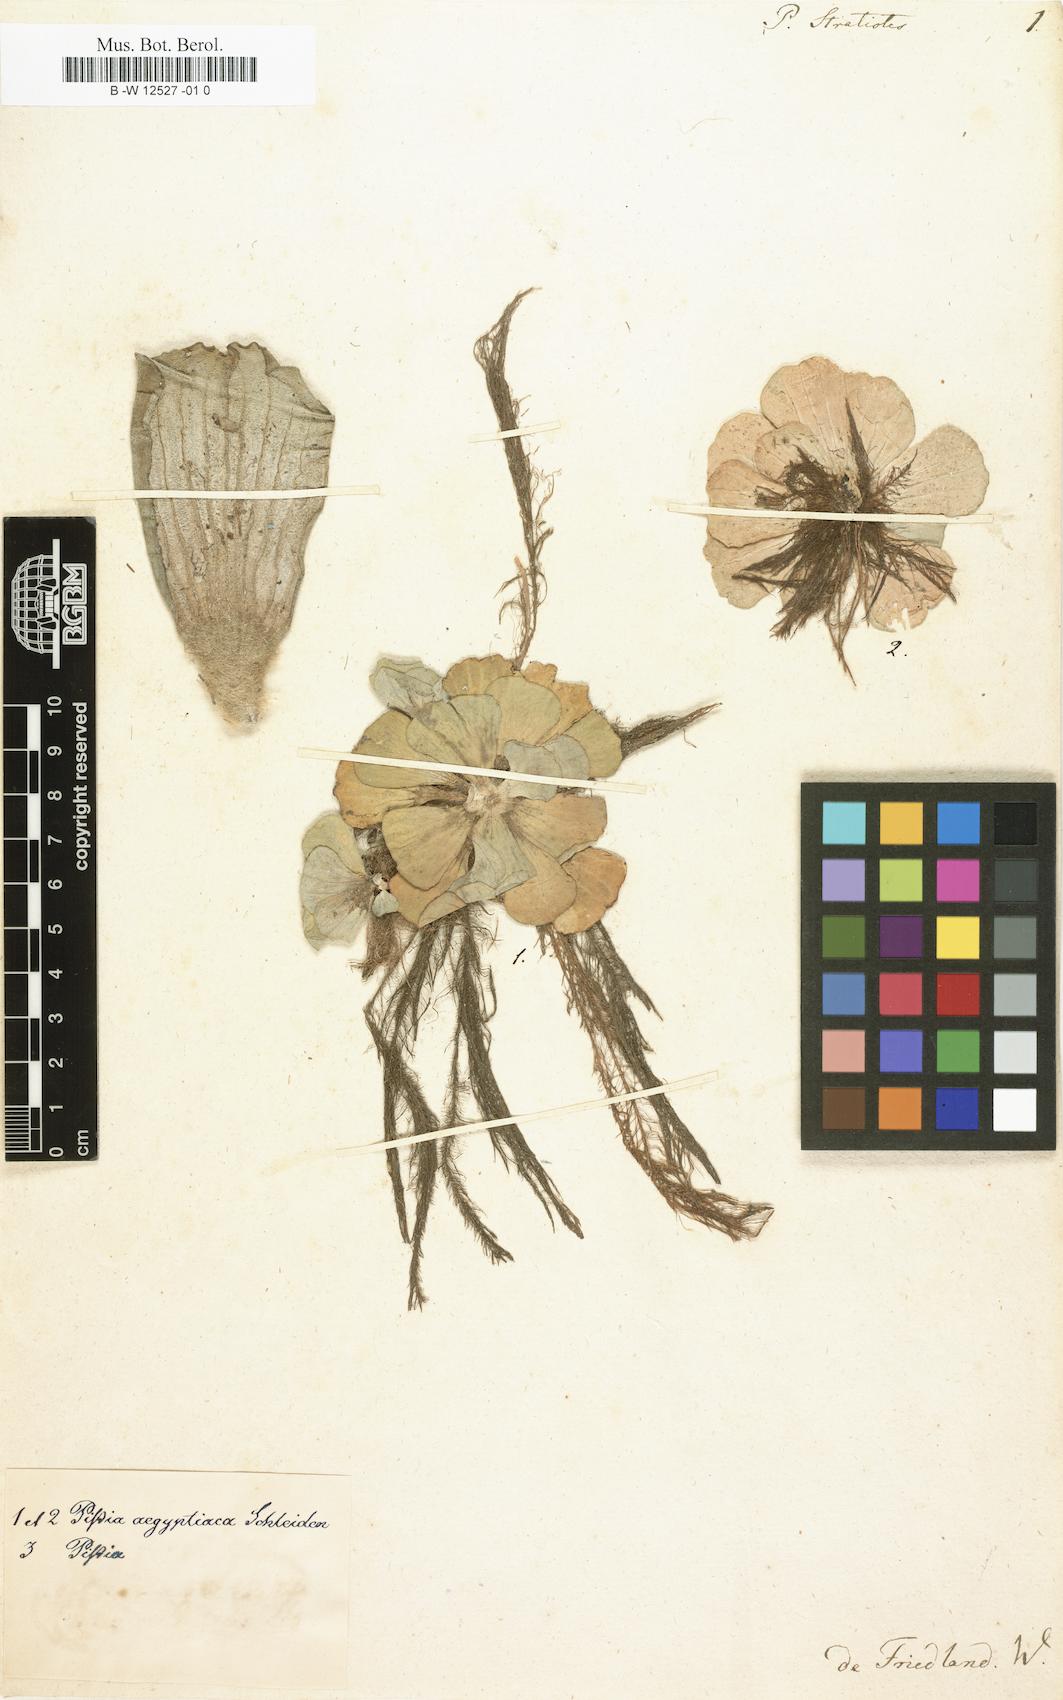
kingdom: Plantae
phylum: Tracheophyta
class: Liliopsida
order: Alismatales
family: Araceae
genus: Pistia
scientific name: Pistia stratiotes
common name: Water lettuce
